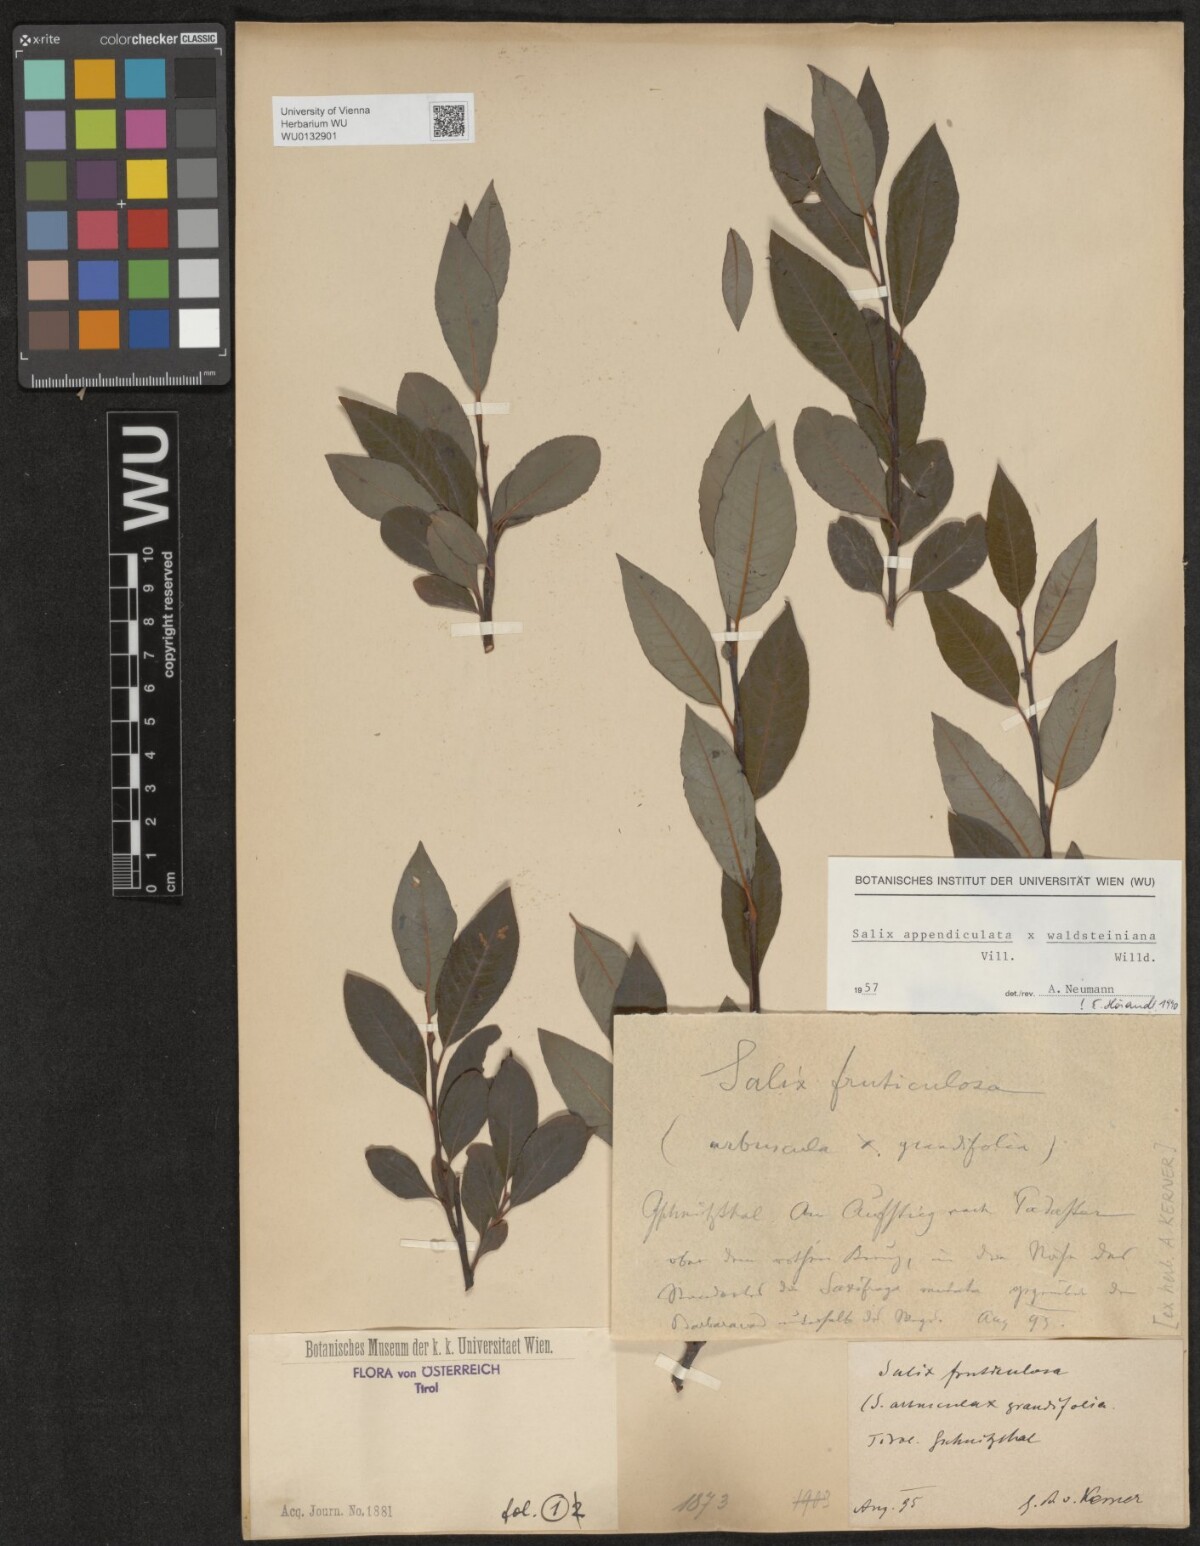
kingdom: Plantae
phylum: Tracheophyta
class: Magnoliopsida
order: Malpighiales
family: Salicaceae
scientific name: Salicaceae
